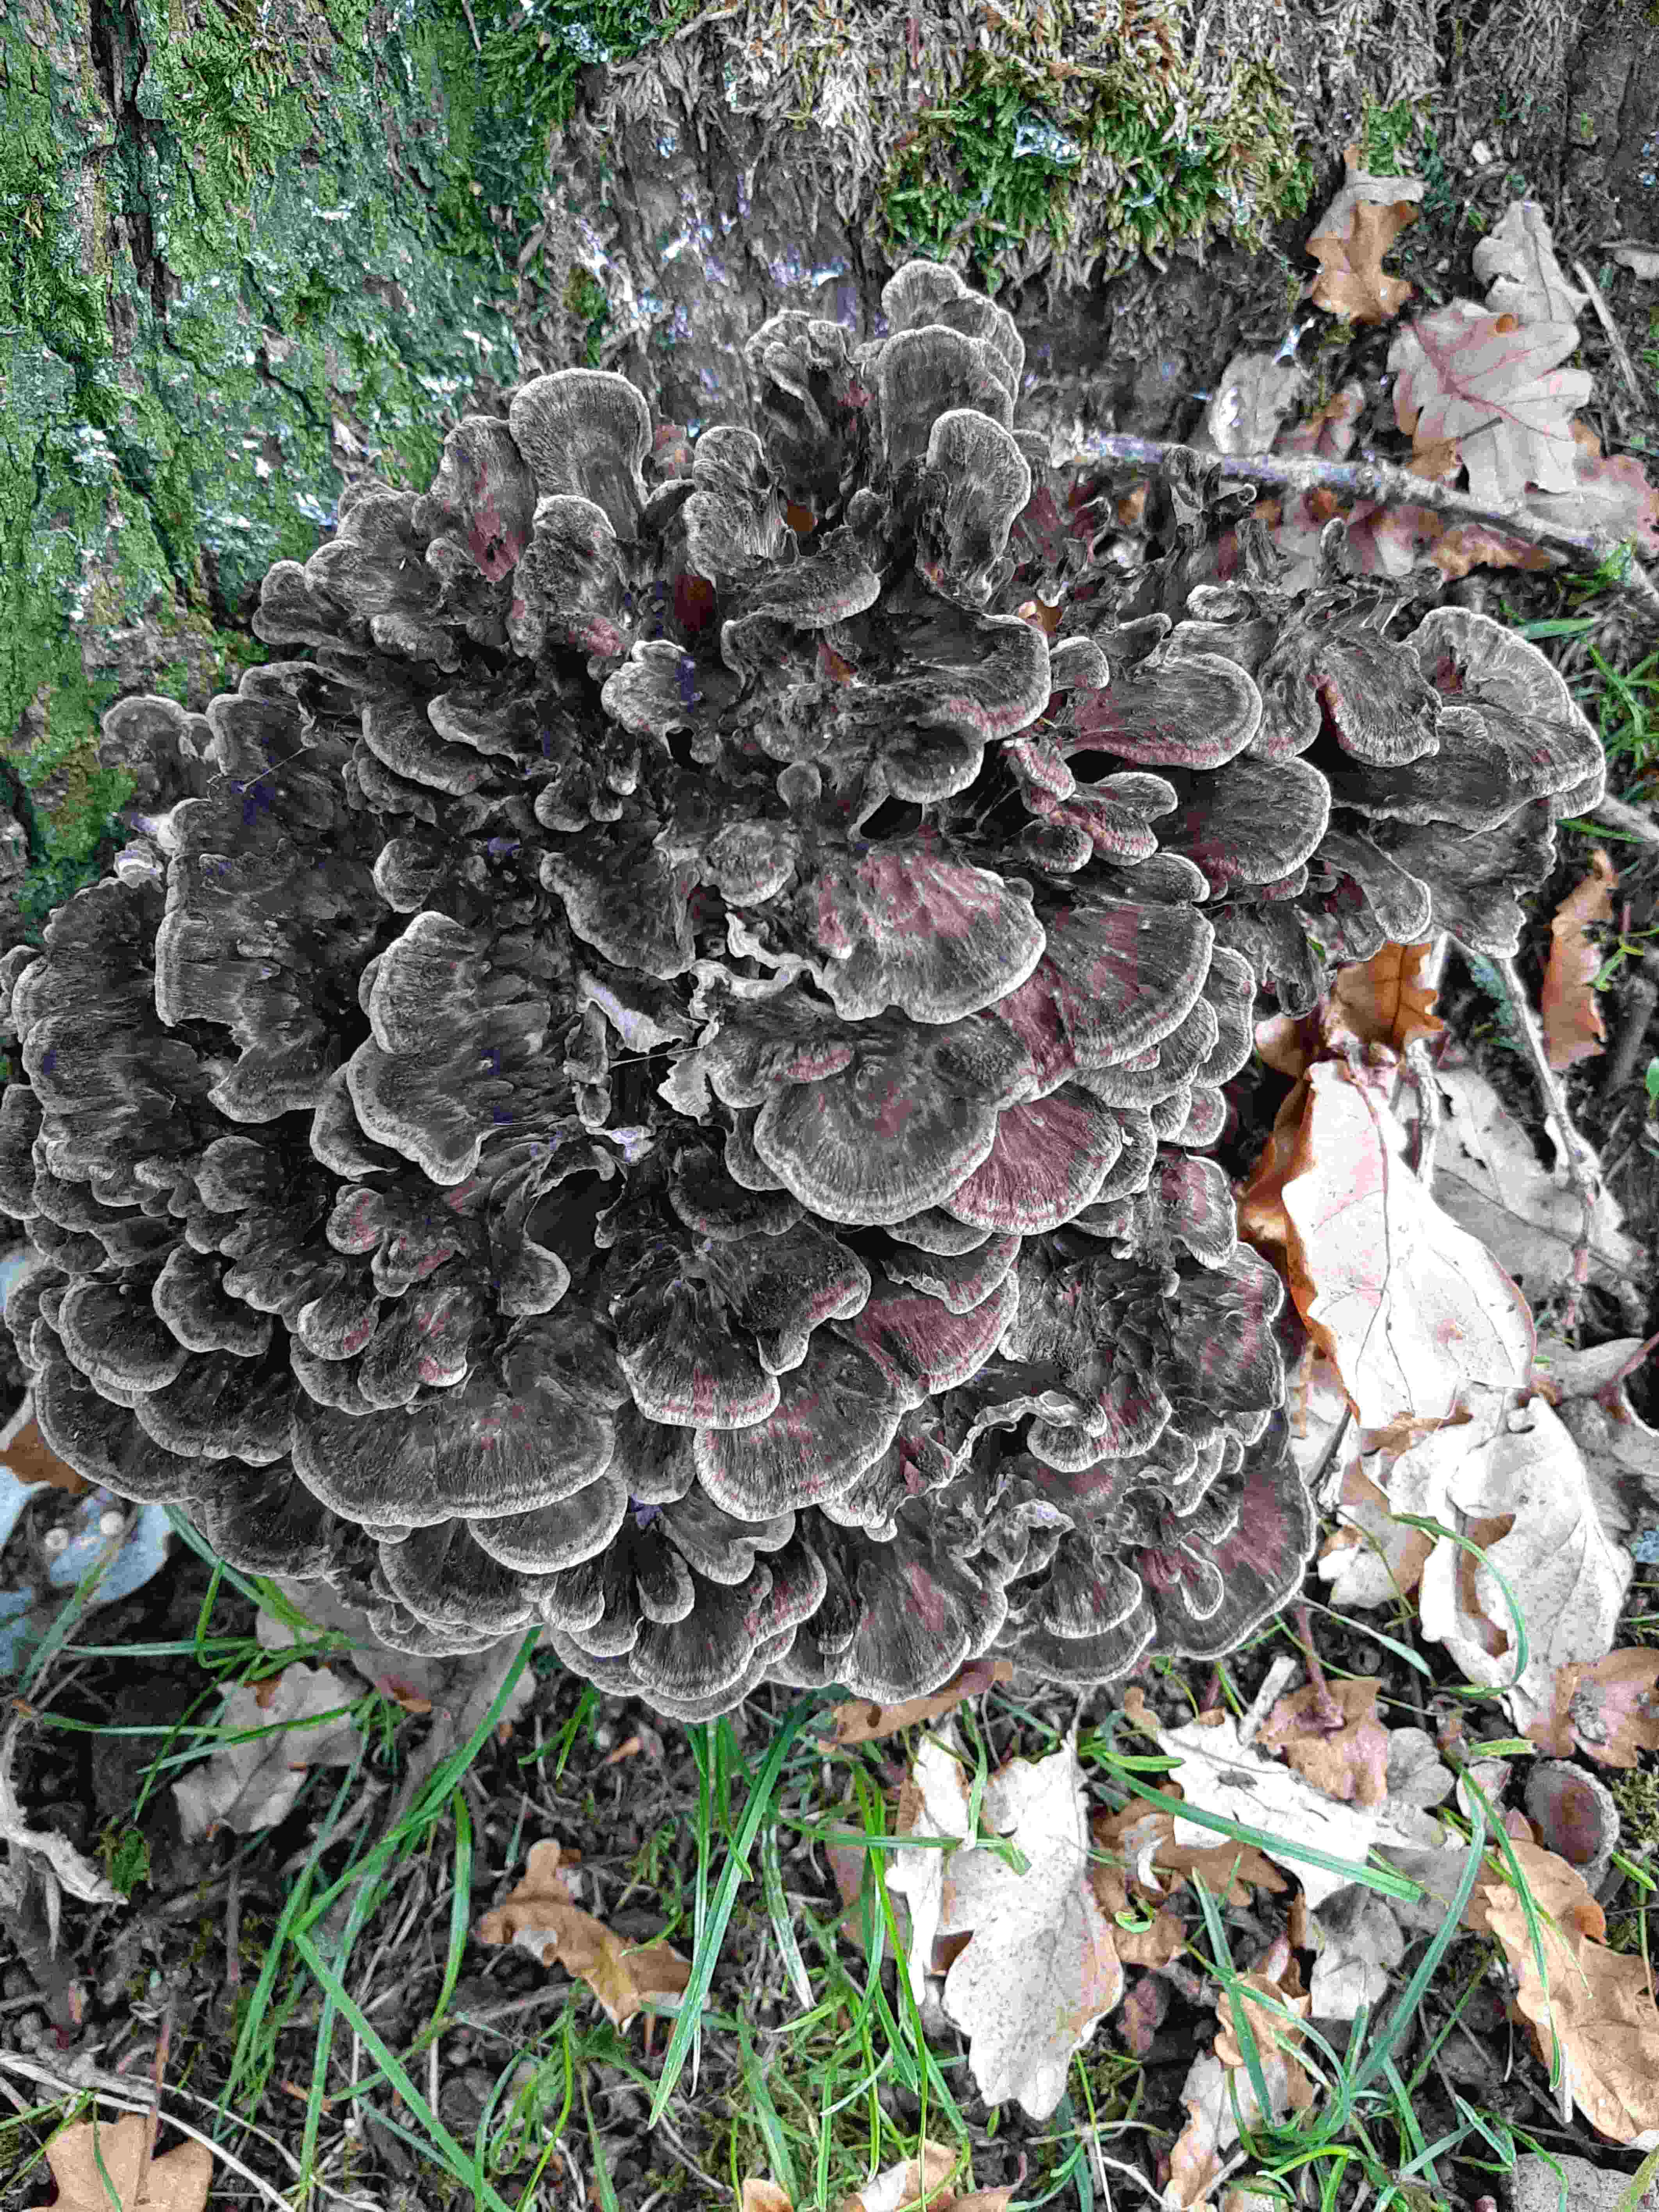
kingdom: Fungi
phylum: Basidiomycota
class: Agaricomycetes
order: Polyporales
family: Grifolaceae
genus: Grifola
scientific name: Grifola frondosa
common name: tueporesvamp
